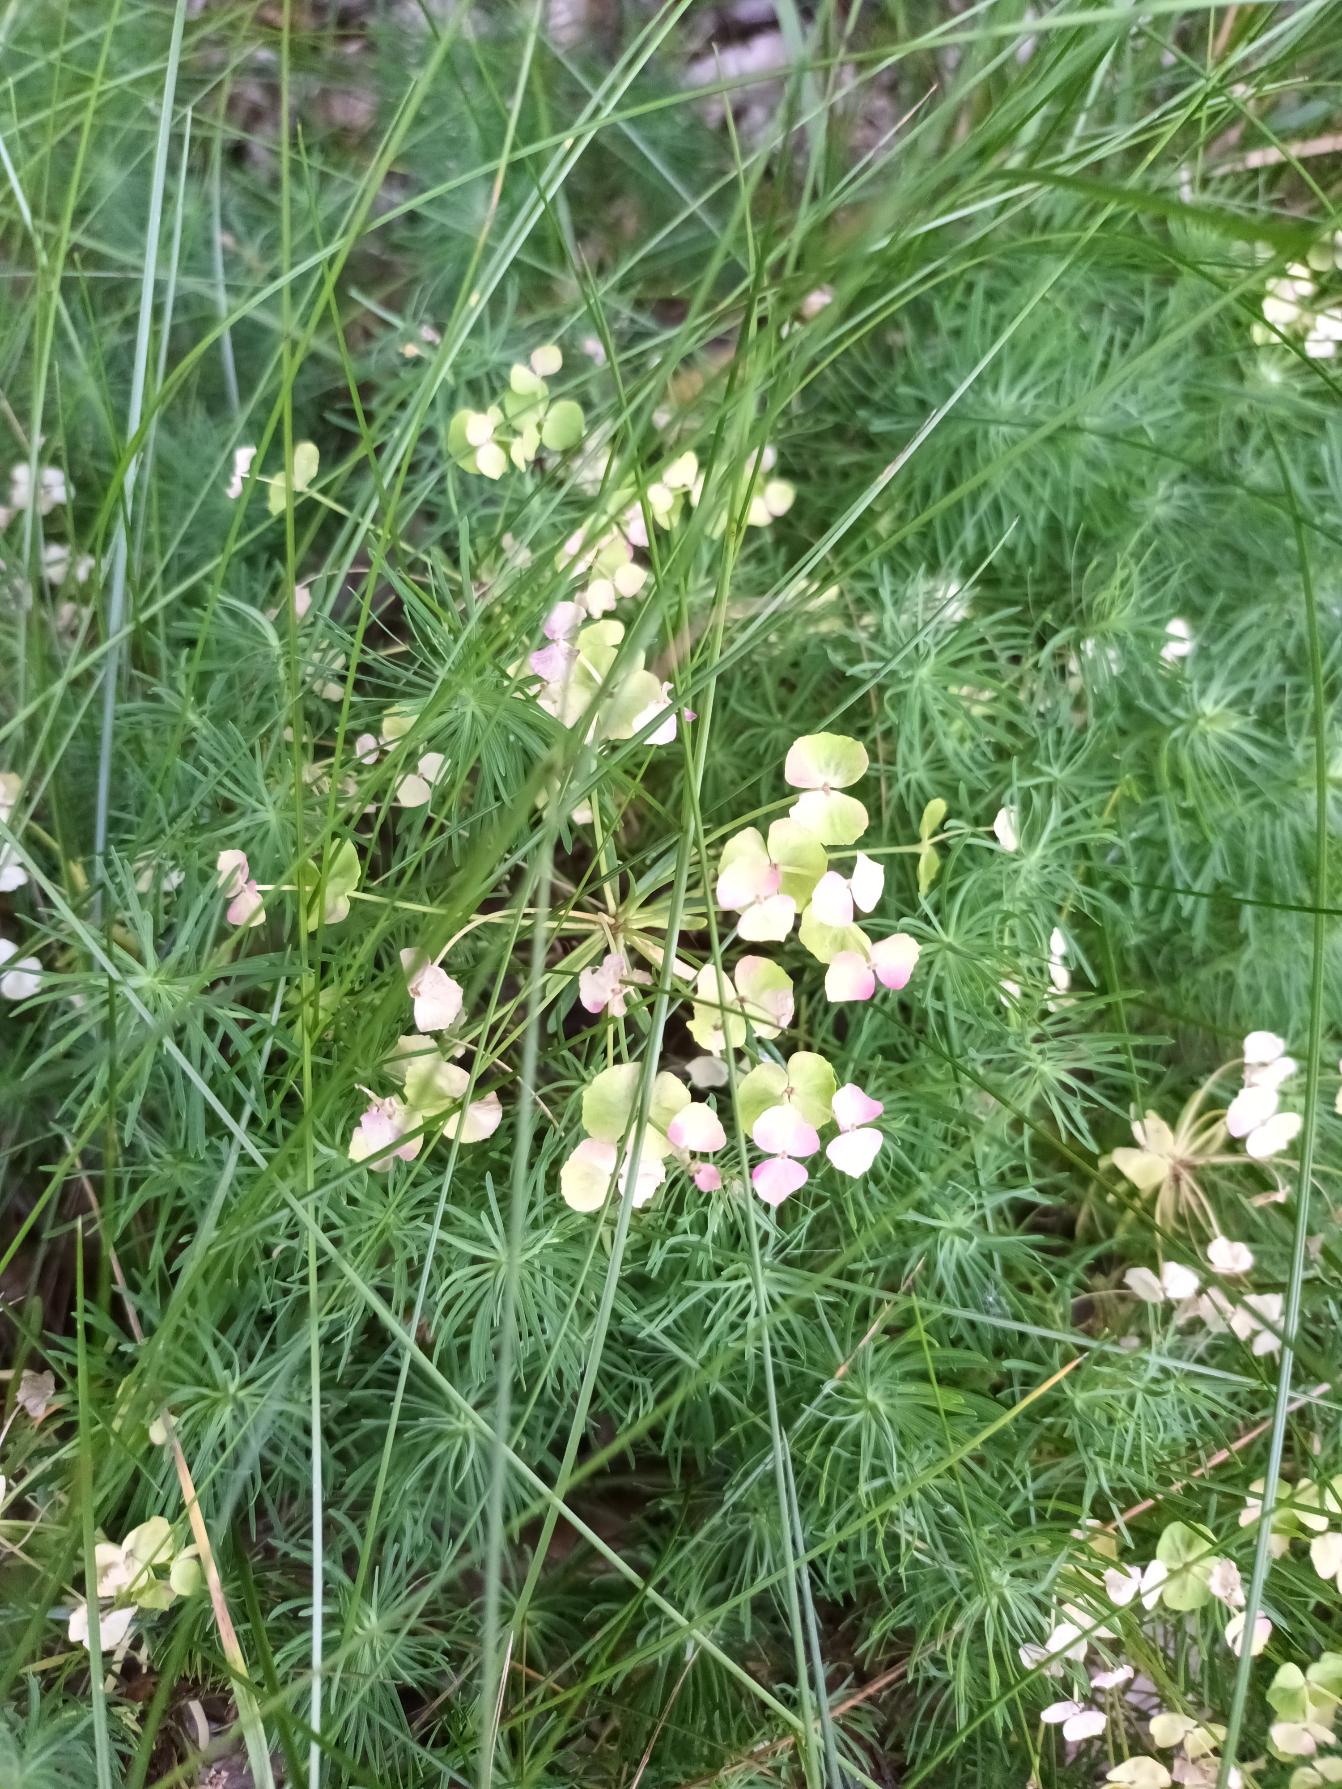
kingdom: Plantae
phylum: Tracheophyta
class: Magnoliopsida
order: Malpighiales
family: Euphorbiaceae
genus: Euphorbia
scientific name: Euphorbia cyparissias
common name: Cypres-vortemælk
